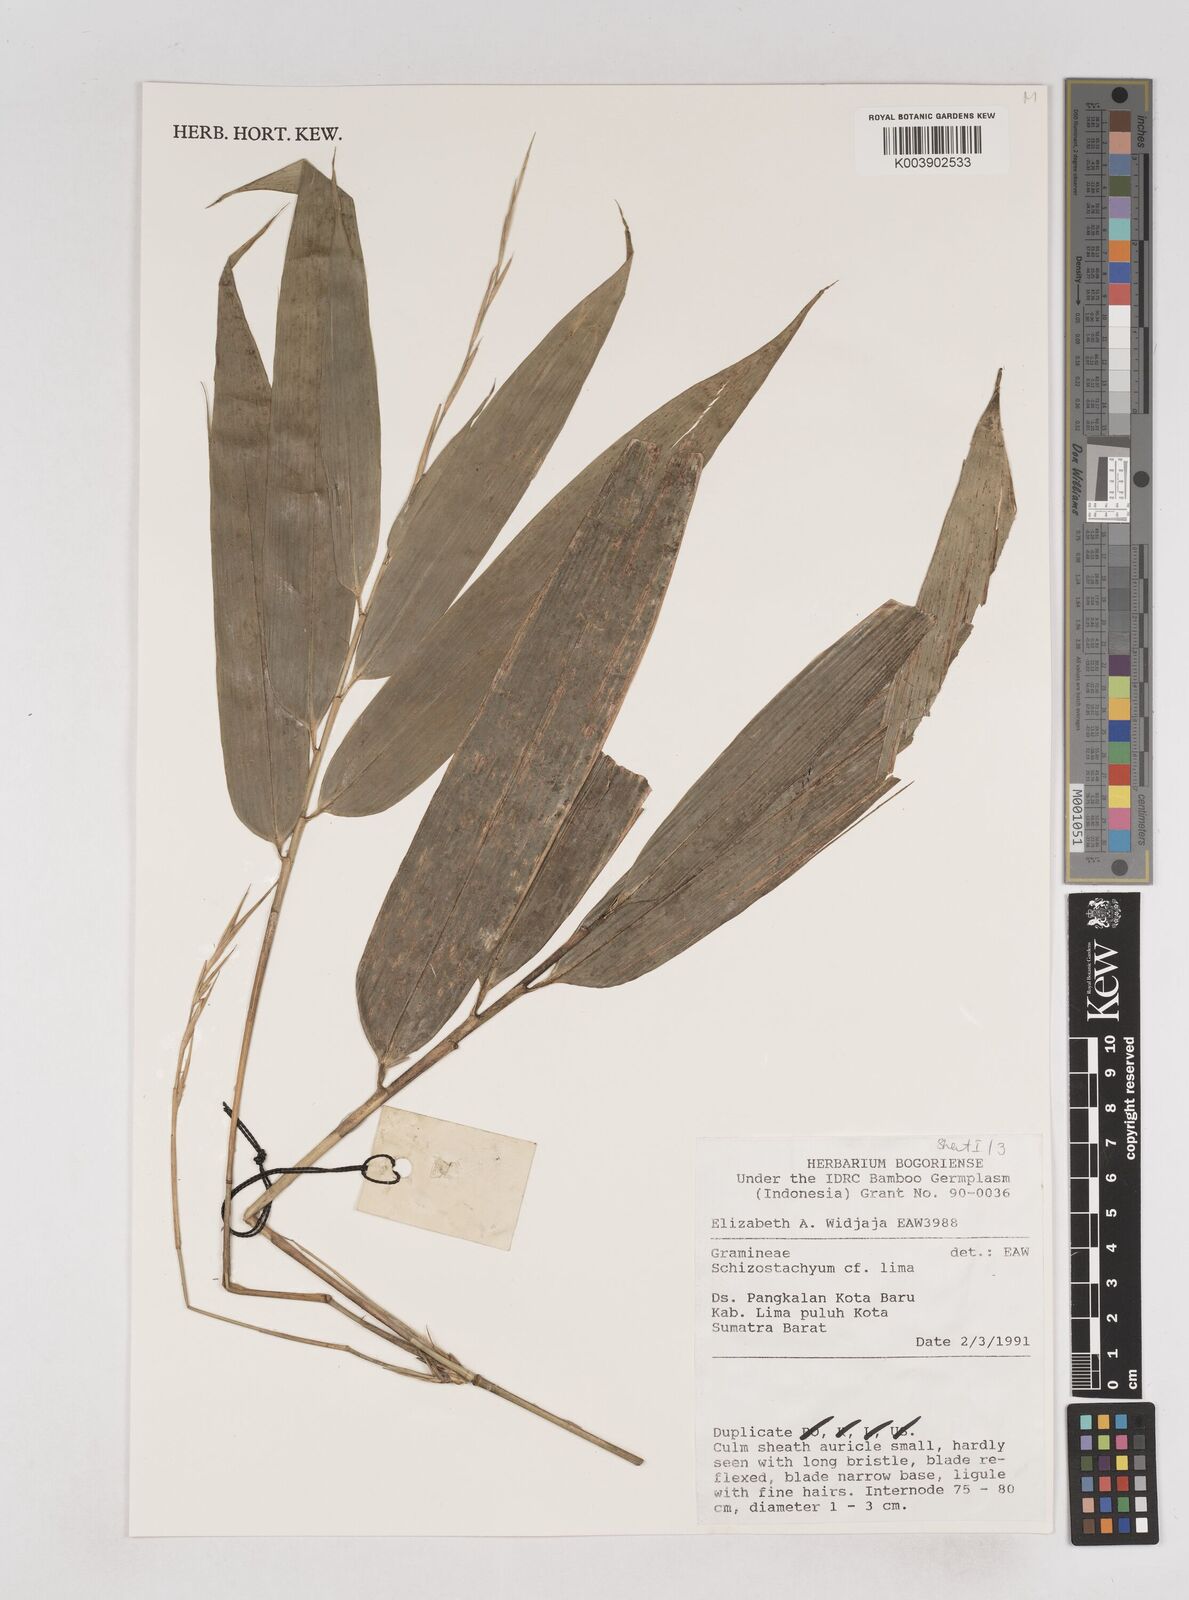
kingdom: Plantae
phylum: Tracheophyta
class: Liliopsida
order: Poales
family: Poaceae
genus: Schizostachyum
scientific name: Schizostachyum lima
